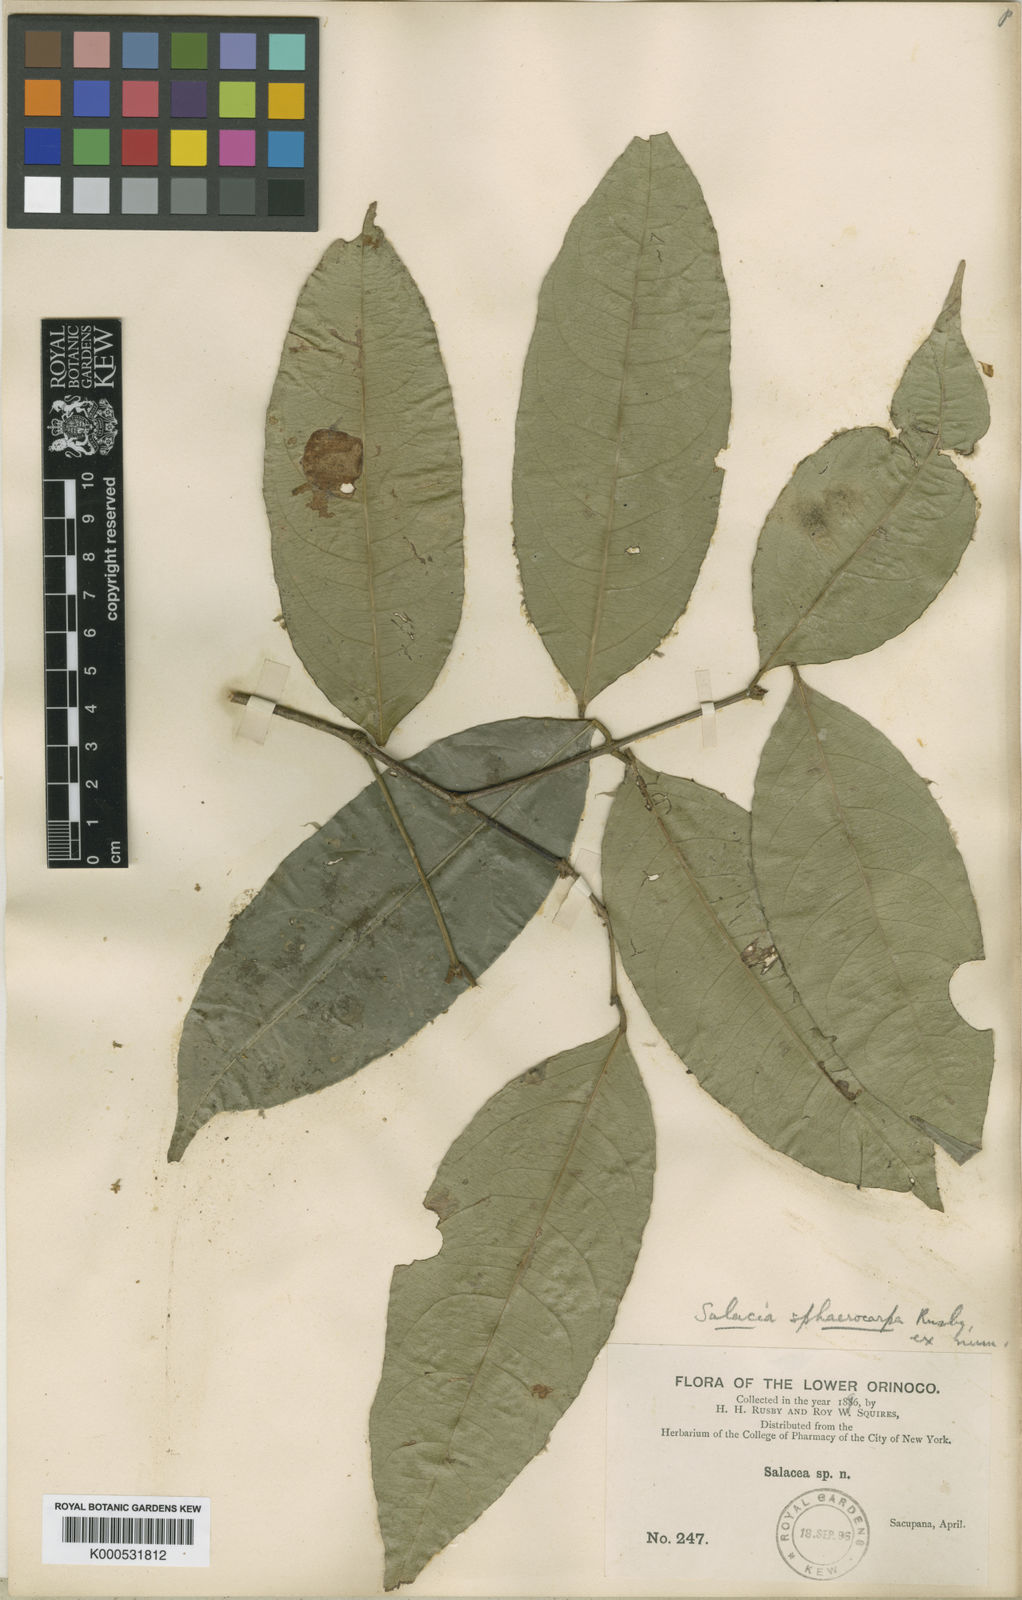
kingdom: Plantae
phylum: Tracheophyta
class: Magnoliopsida
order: Celastrales
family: Celastraceae
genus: Cheiloclinium
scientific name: Cheiloclinium cognatum
